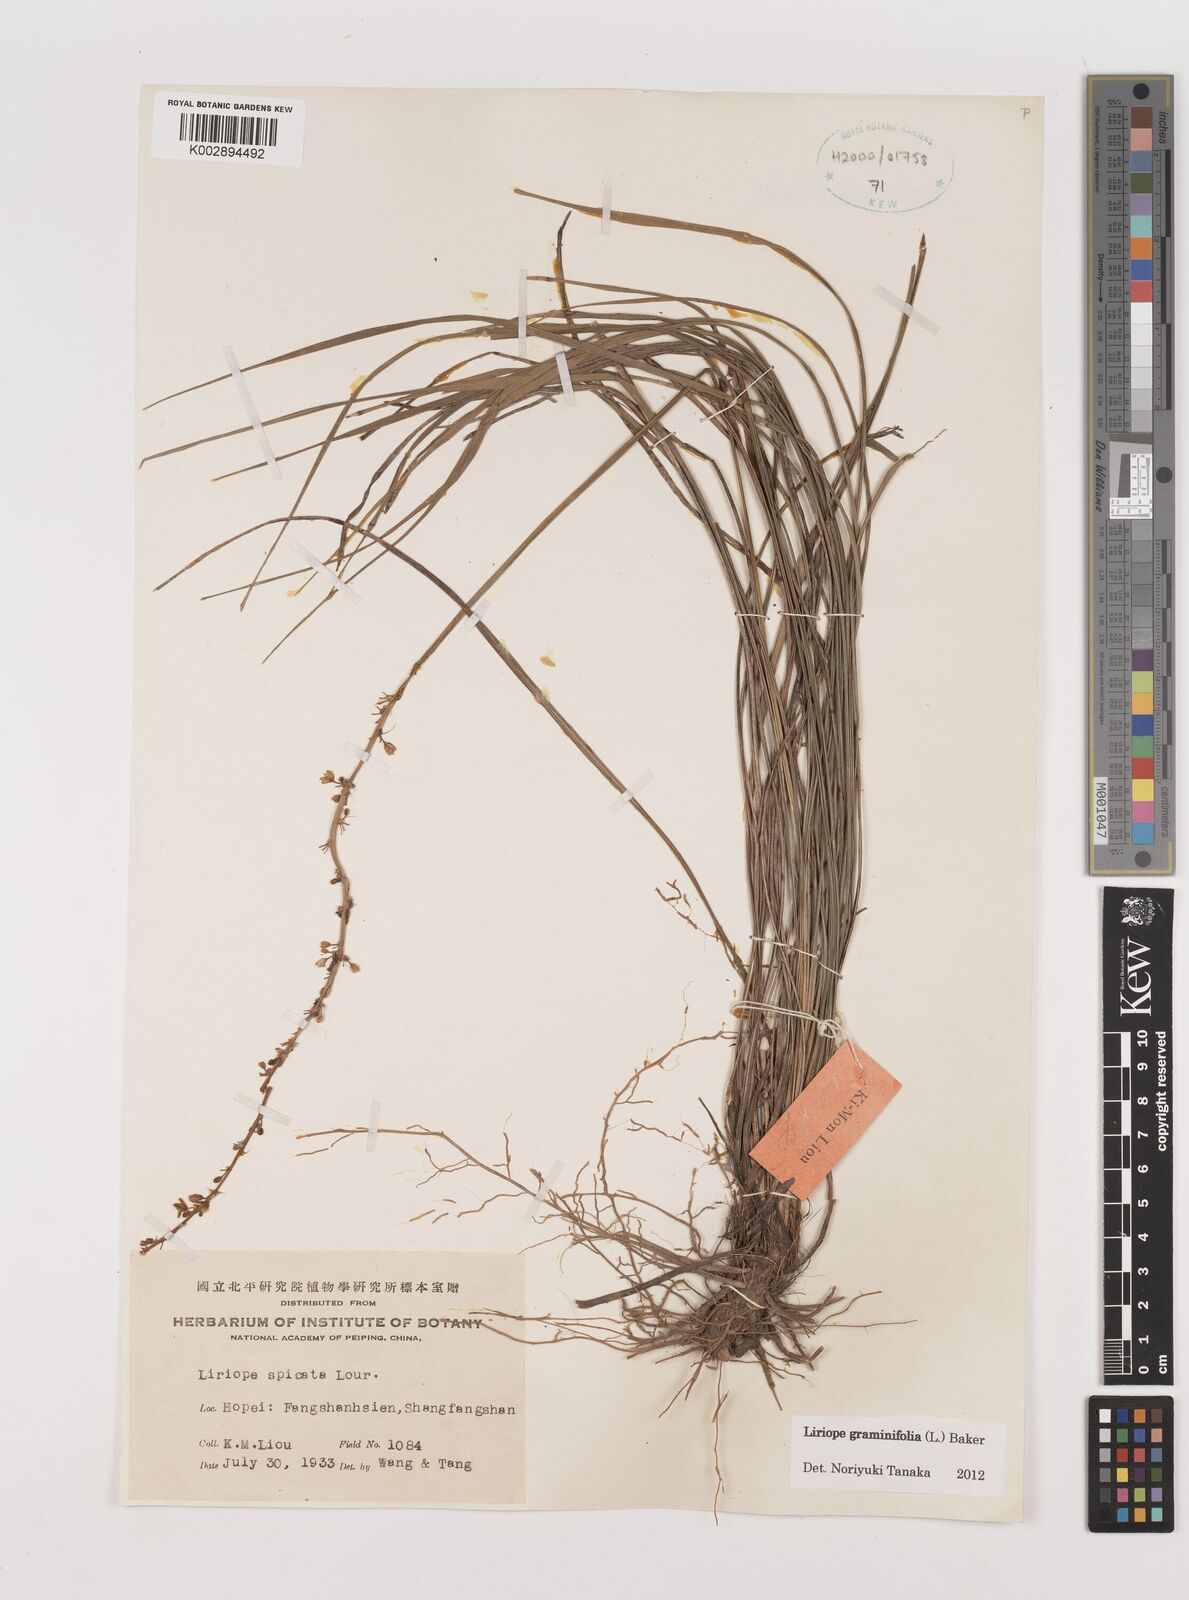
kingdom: Plantae
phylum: Tracheophyta
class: Liliopsida
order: Asparagales
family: Asparagaceae
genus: Liriope
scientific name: Liriope graminifolia
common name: Lilyturf
